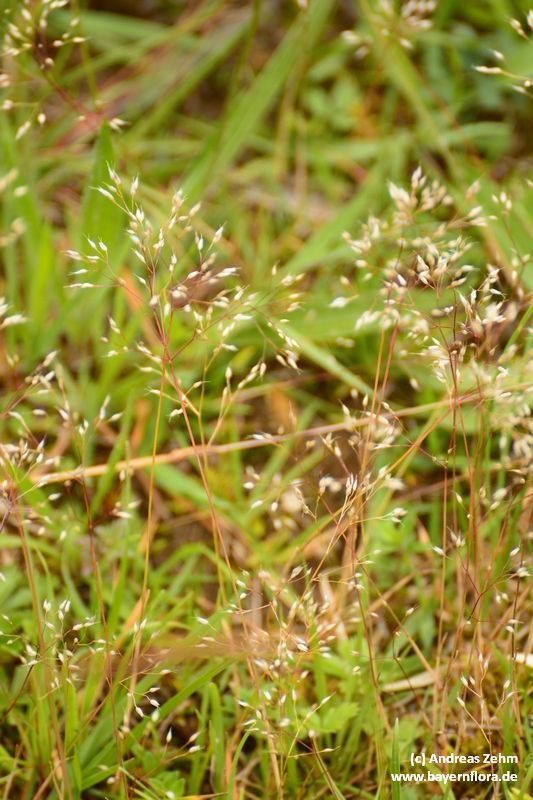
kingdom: Plantae
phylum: Tracheophyta
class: Liliopsida
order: Poales
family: Poaceae
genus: Aira
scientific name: Aira caryophyllea
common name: Silver hairgrass
